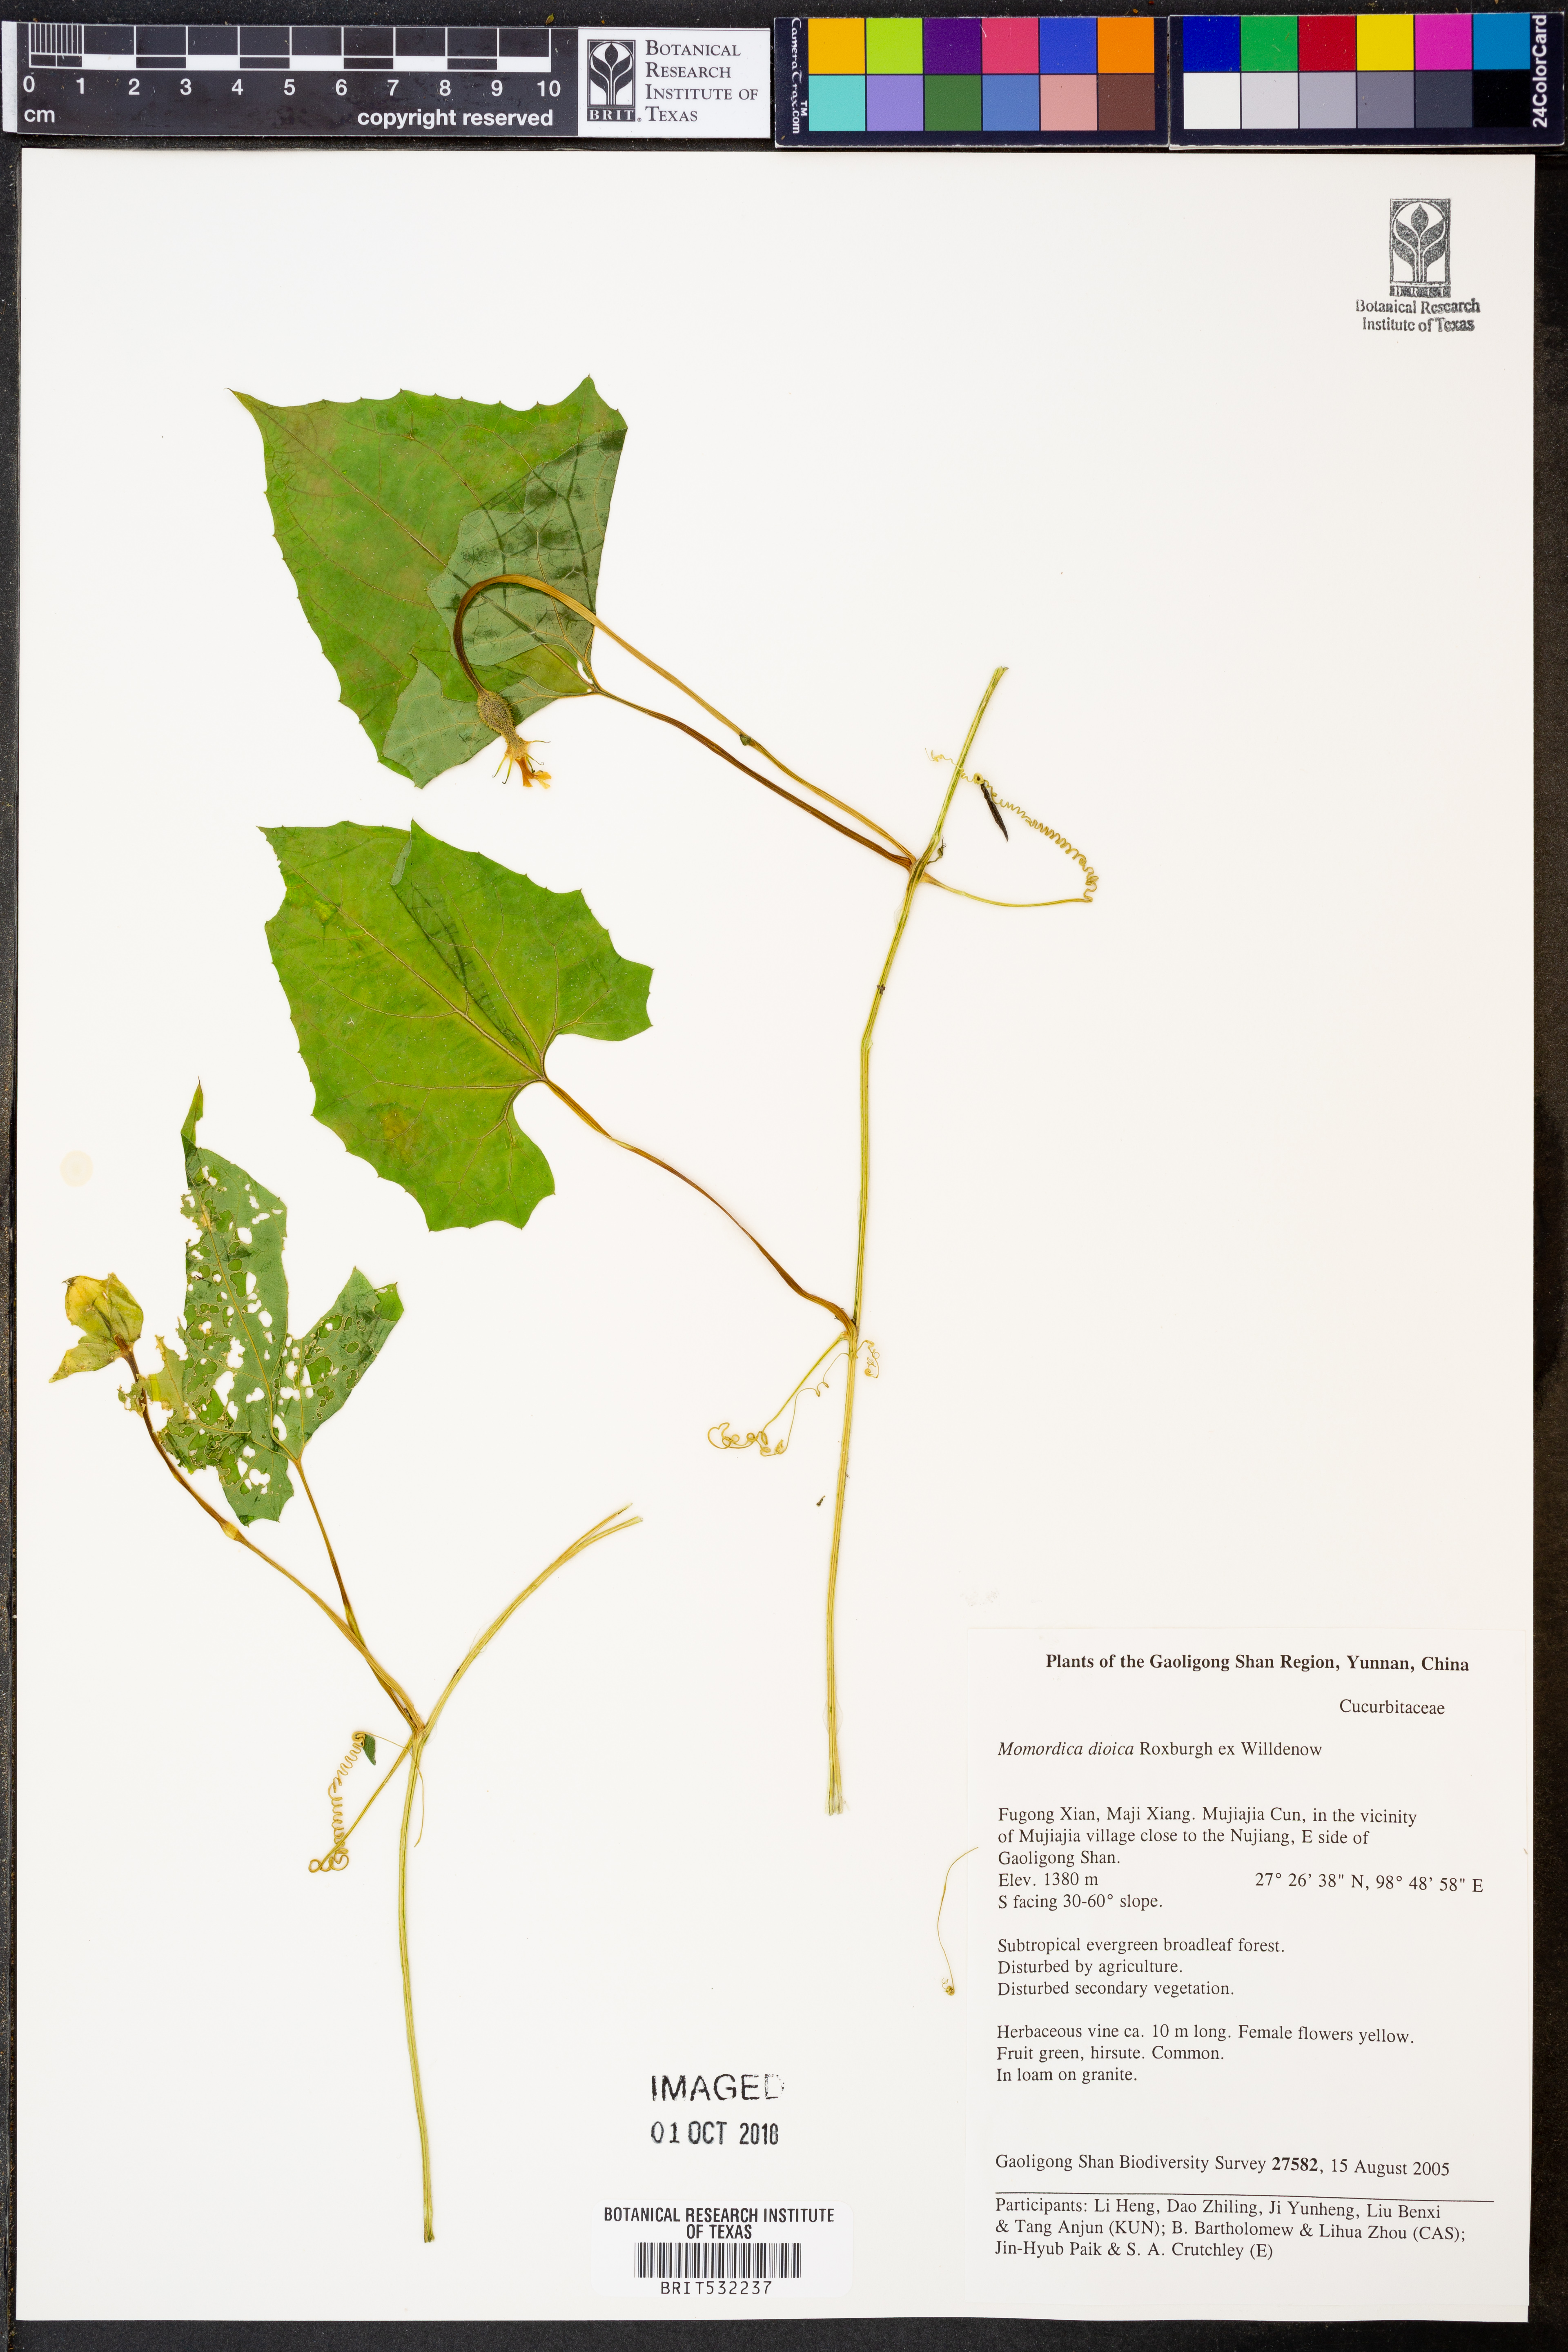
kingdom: Plantae
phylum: Tracheophyta
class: Magnoliopsida
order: Cucurbitales
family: Cucurbitaceae
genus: Momordica
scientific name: Momordica dioica
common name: Spine gourd
